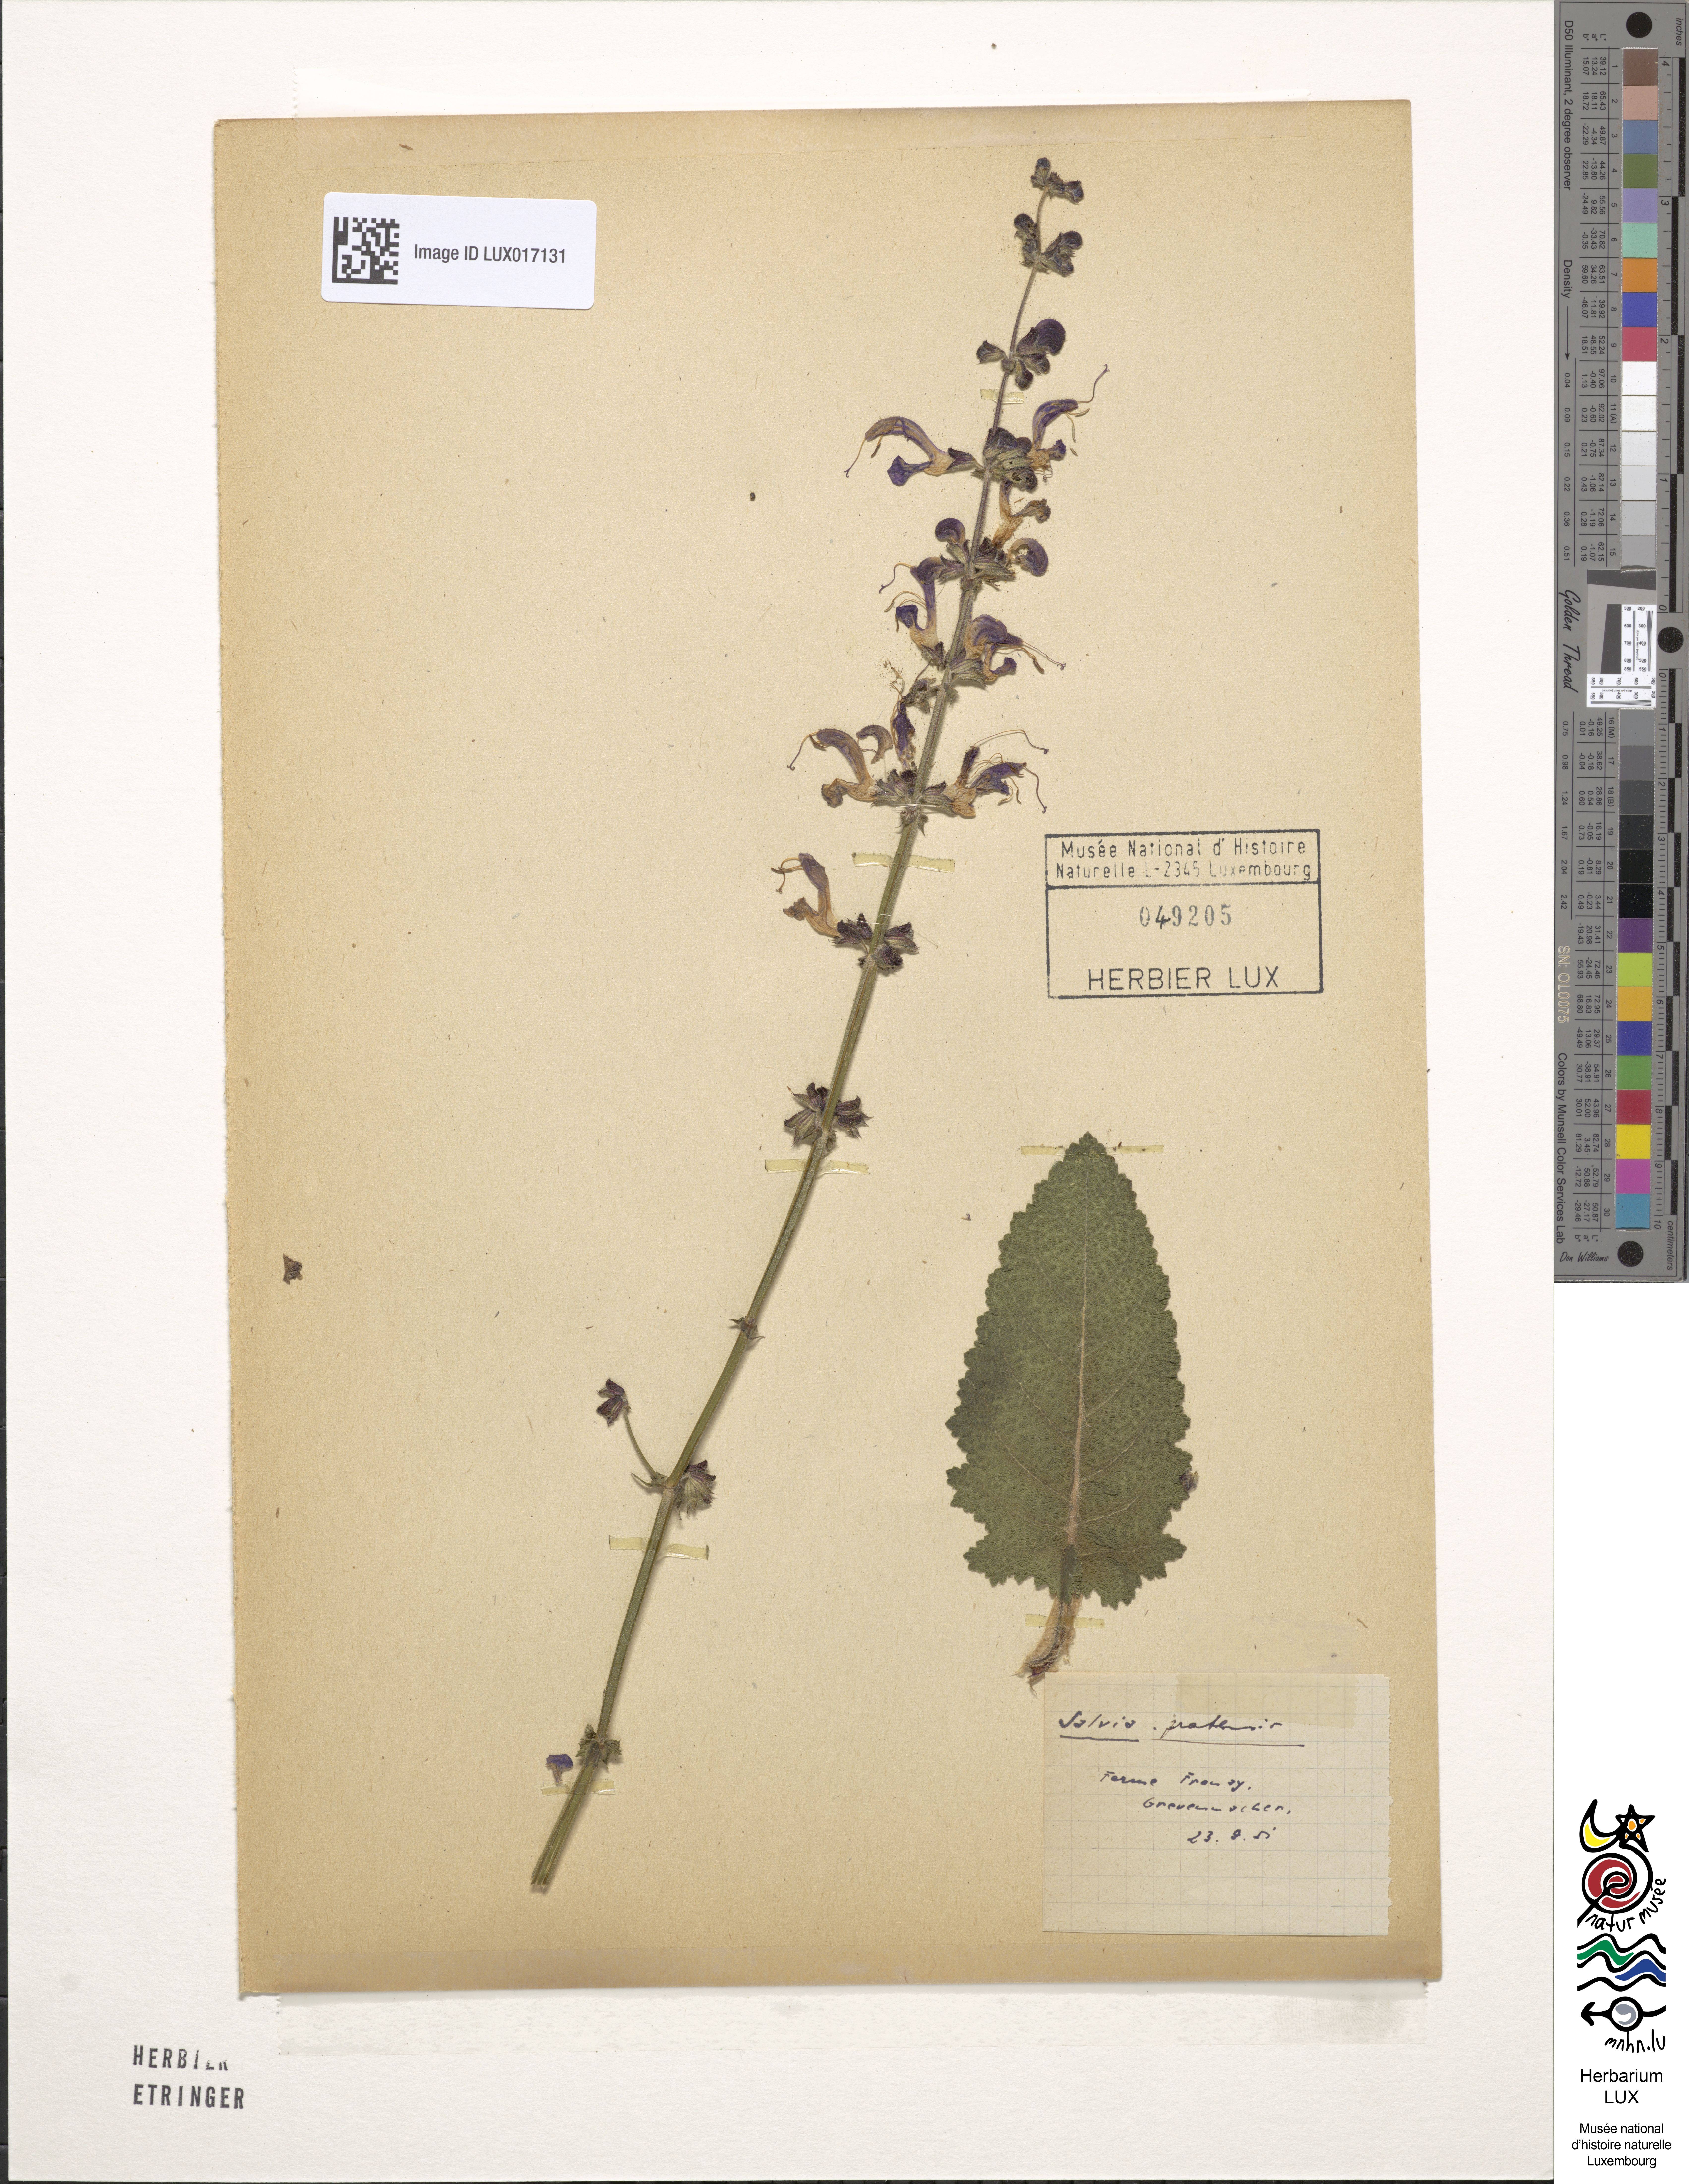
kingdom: Plantae
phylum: Tracheophyta
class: Magnoliopsida
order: Lamiales
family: Lamiaceae
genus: Salvia
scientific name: Salvia pratensis
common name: Meadow sage
